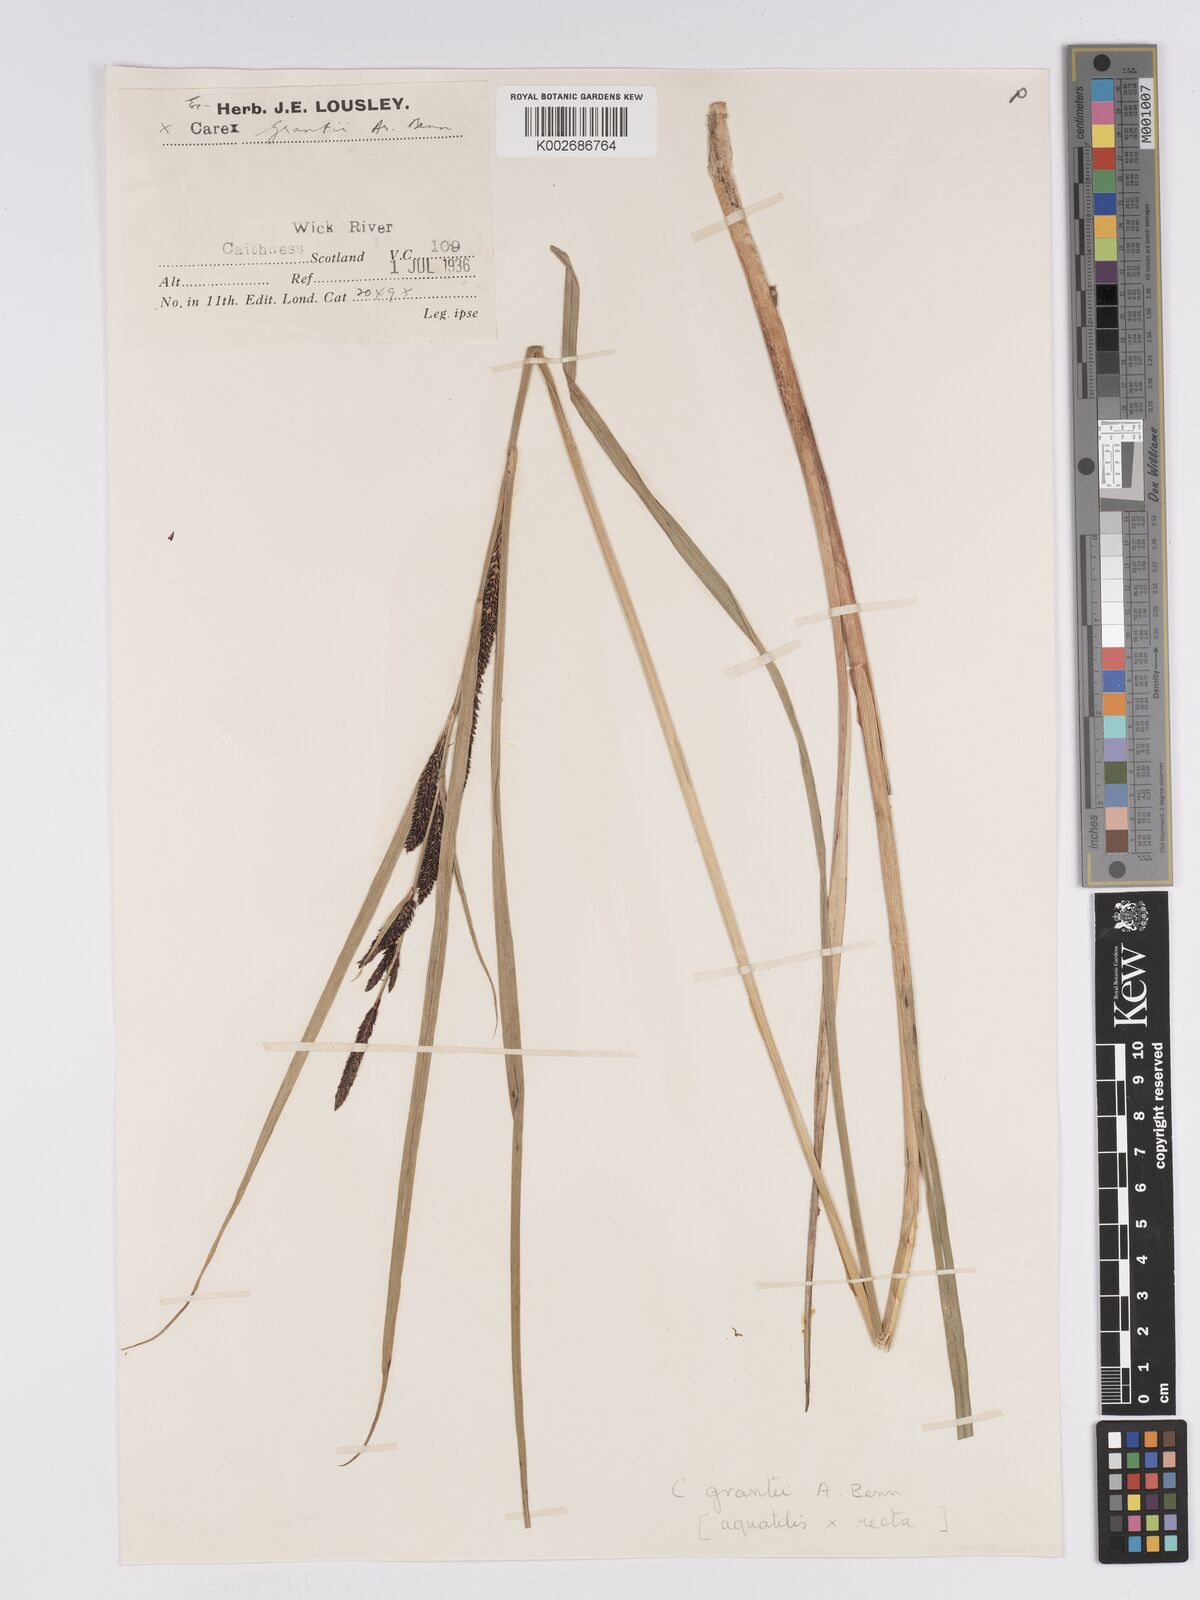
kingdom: Plantae
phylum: Tracheophyta
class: Liliopsida
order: Poales
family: Cyperaceae
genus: Carex
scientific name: Carex grantii
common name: Grant's sedge
